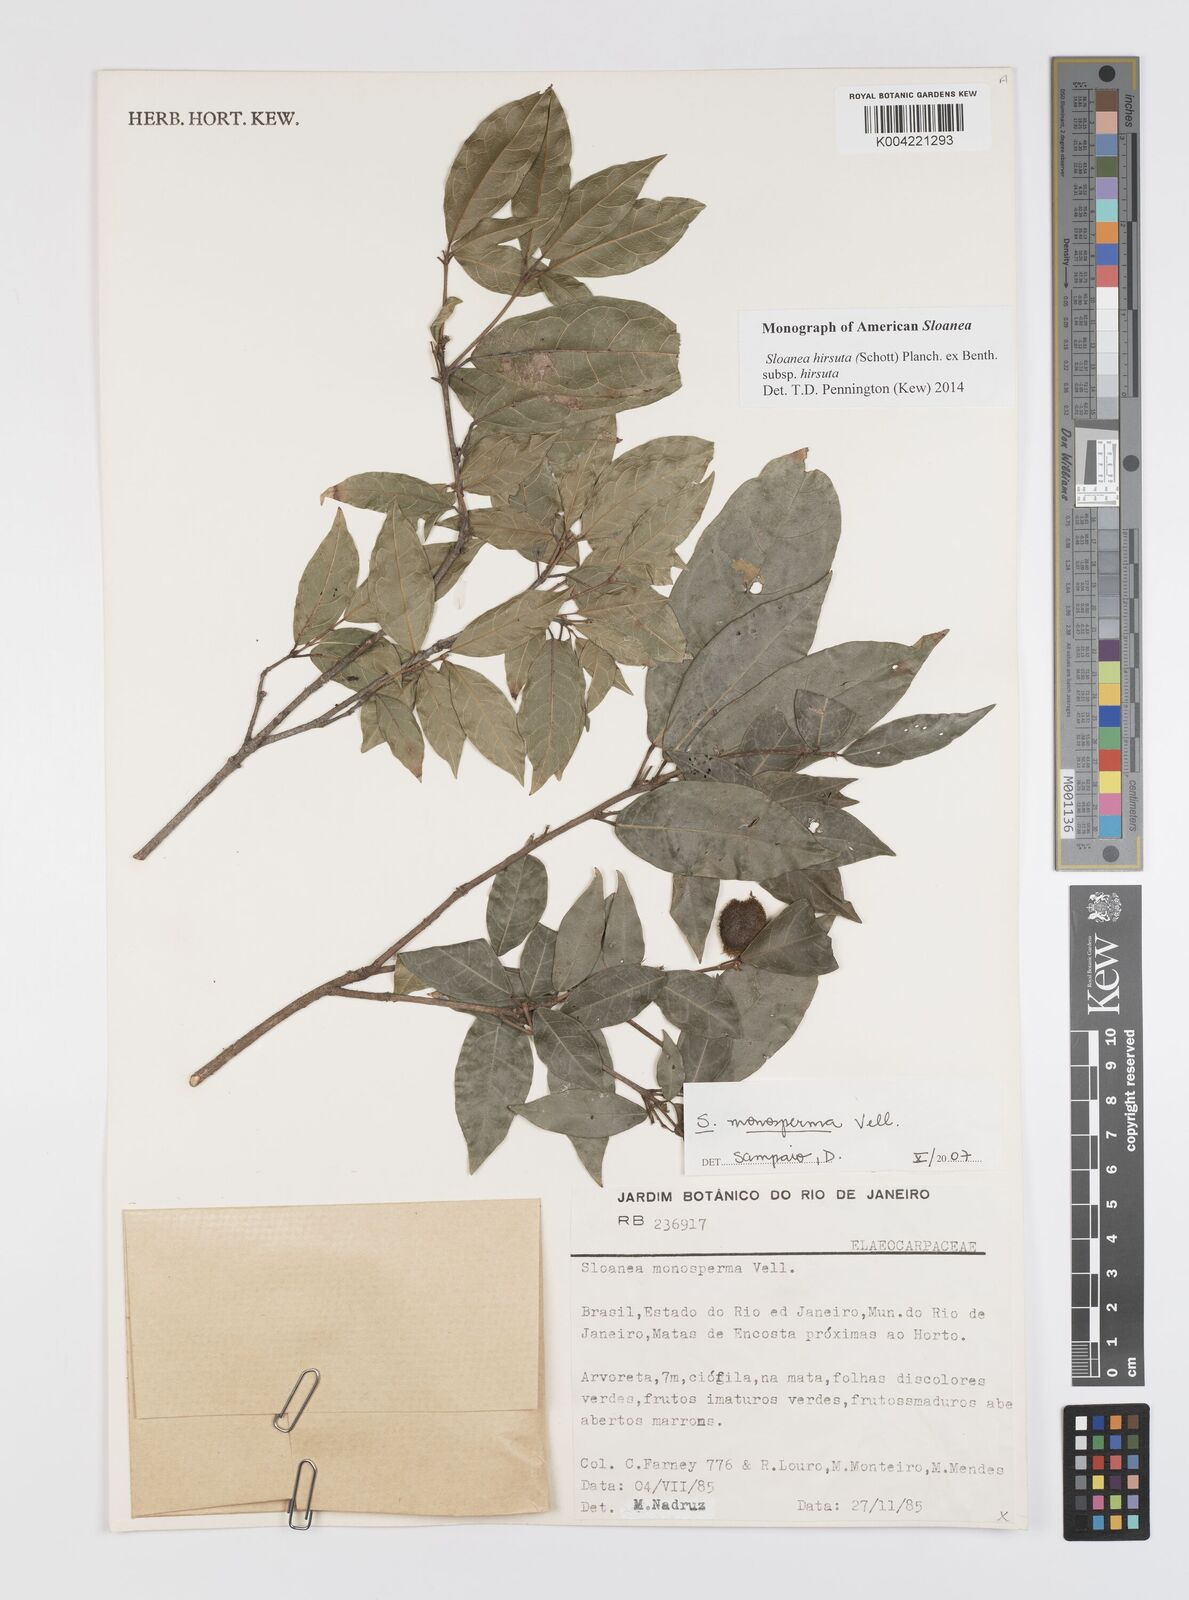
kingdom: Plantae
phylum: Tracheophyta
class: Magnoliopsida
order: Oxalidales
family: Elaeocarpaceae
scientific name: Elaeocarpaceae
